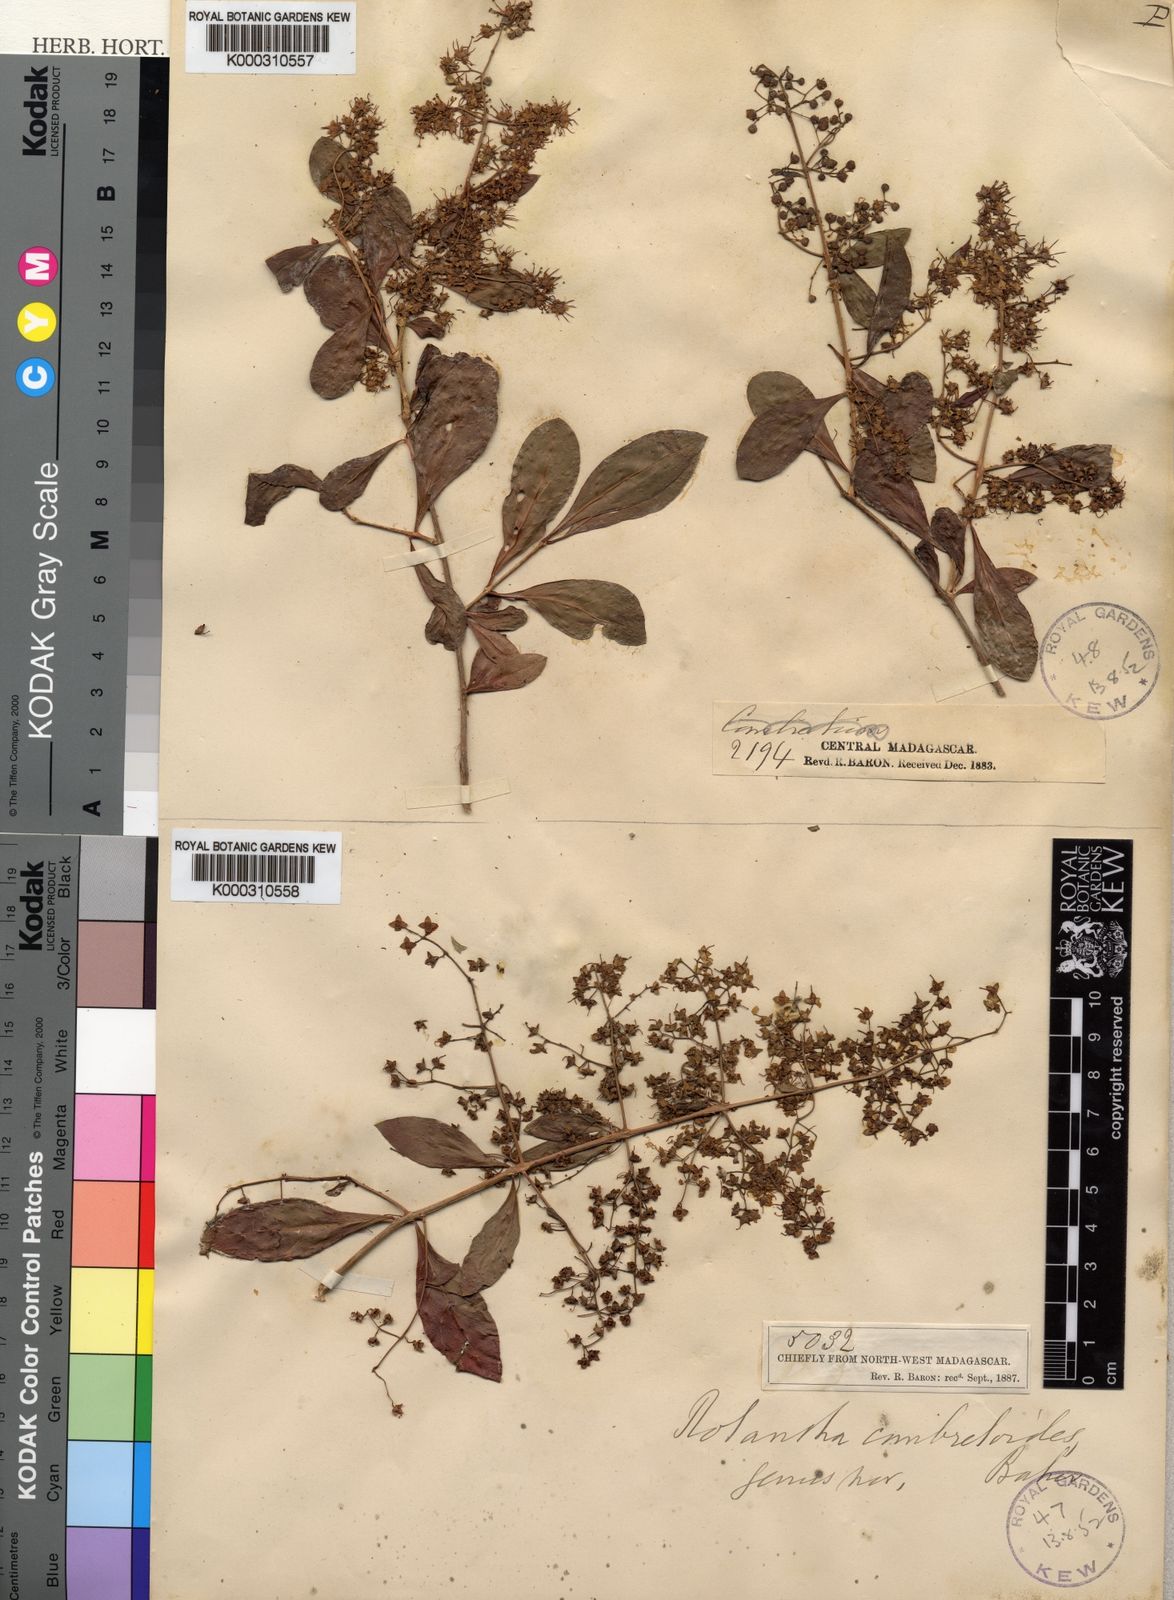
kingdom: Plantae
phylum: Tracheophyta
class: Magnoliopsida
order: Myrtales
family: Lythraceae
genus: Lawsonia
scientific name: Lawsonia
